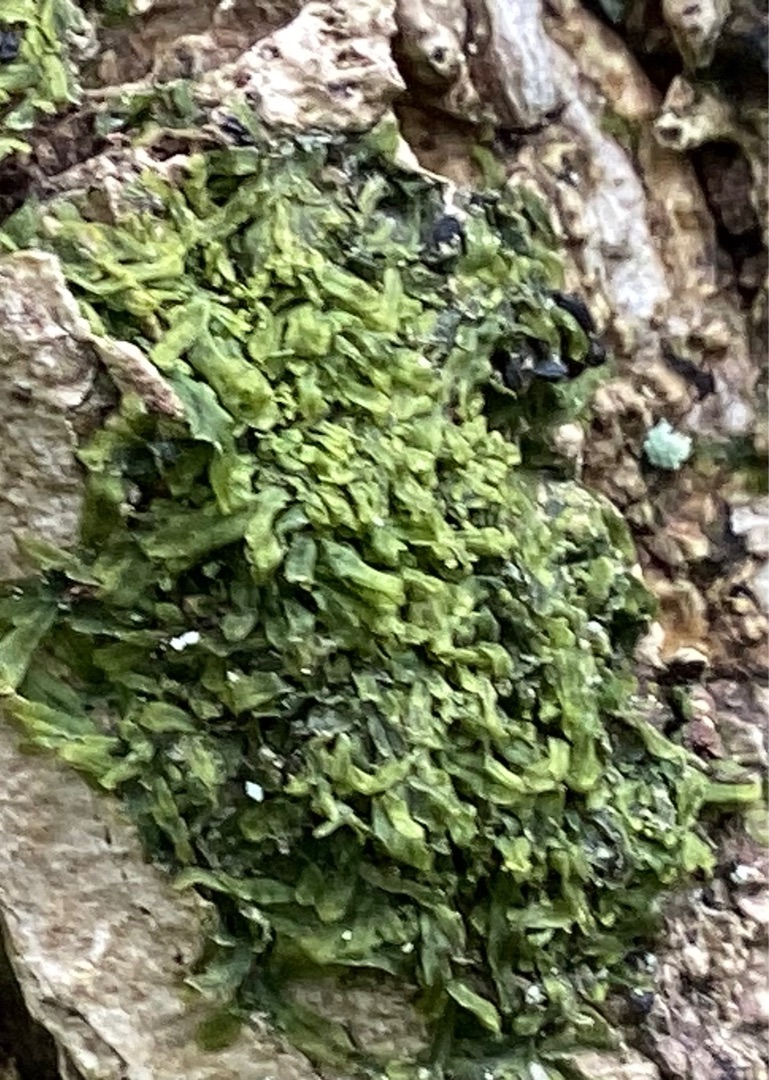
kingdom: Plantae
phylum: Marchantiophyta
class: Jungermanniopsida
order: Metzgeriales
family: Metzgeriaceae
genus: Metzgeria
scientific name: Metzgeria furcata
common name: Almindelig gaffelløv
